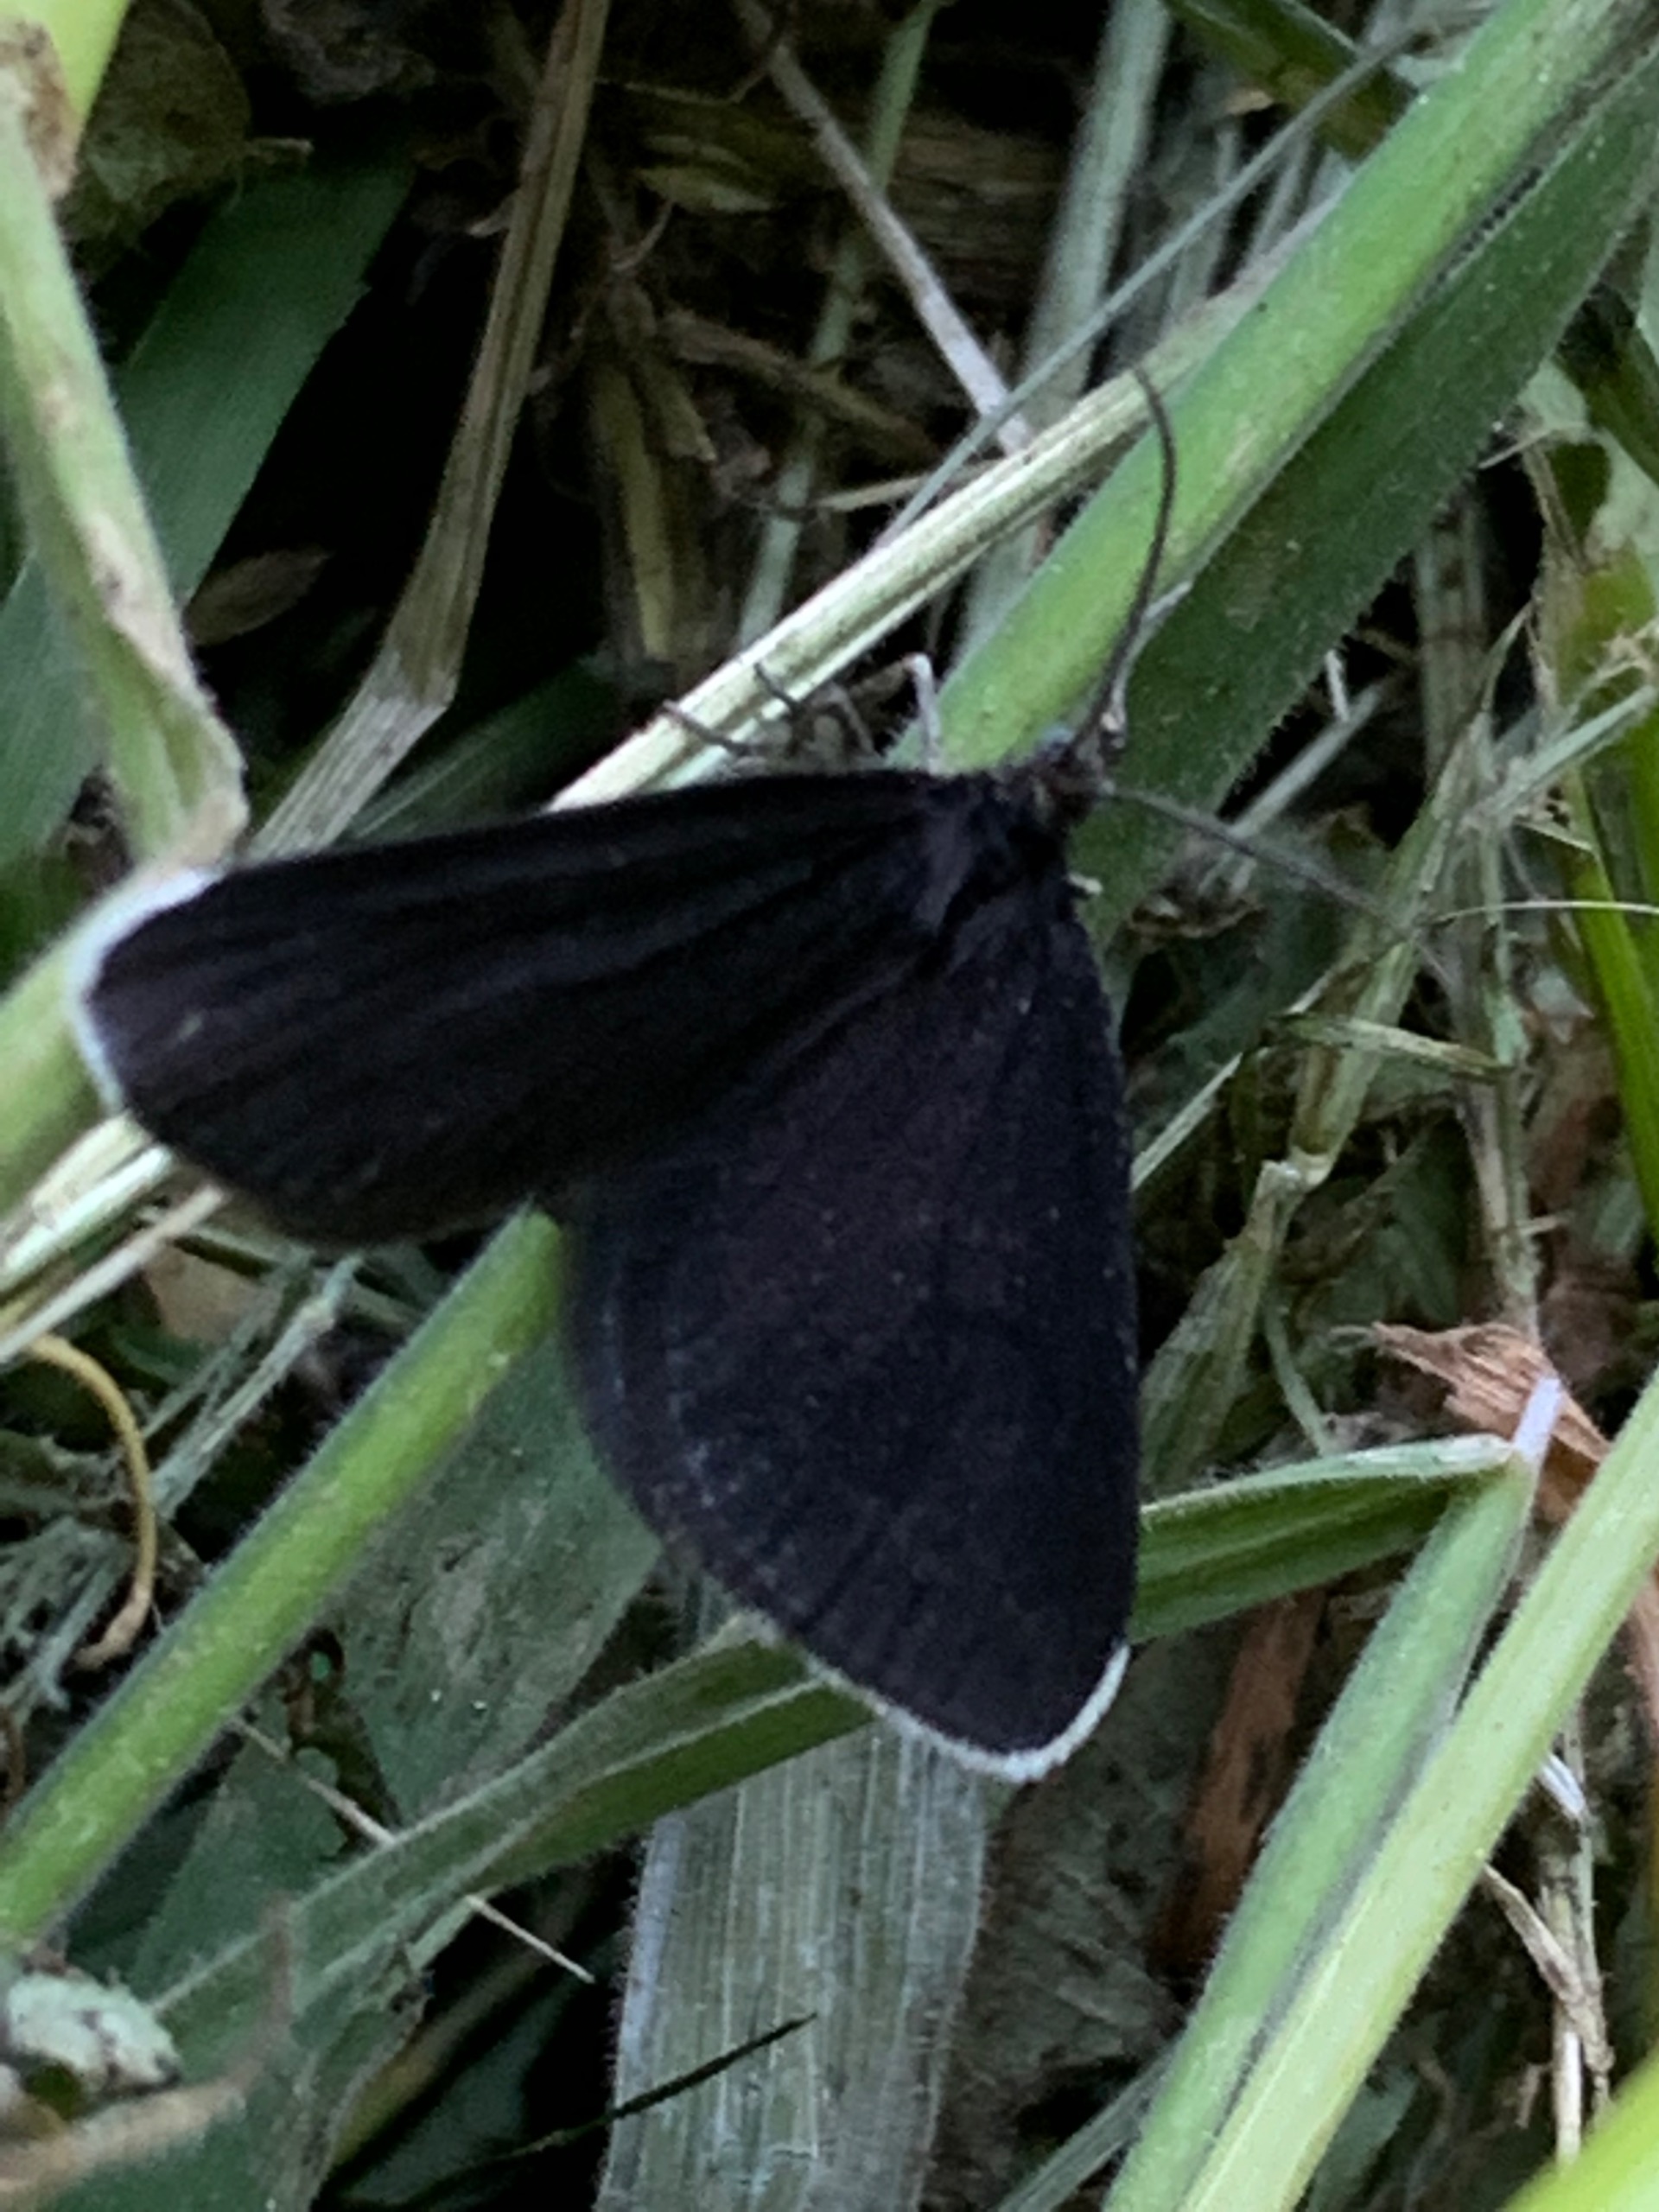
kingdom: Animalia
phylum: Arthropoda
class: Insecta
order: Lepidoptera
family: Geometridae
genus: Odezia
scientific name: Odezia atrata
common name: Sort måler
